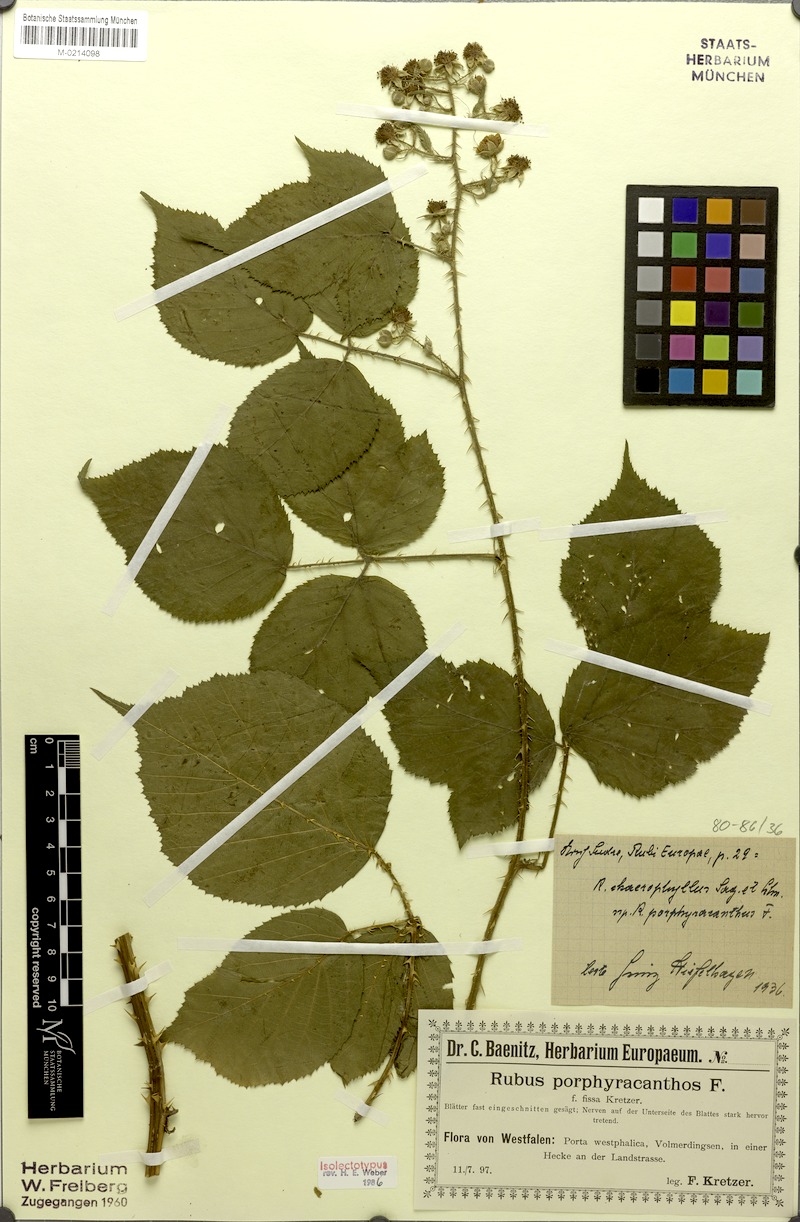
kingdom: Plantae
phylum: Tracheophyta
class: Magnoliopsida
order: Rosales
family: Rosaceae
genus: Rubus
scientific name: Rubus porphyracanthos
